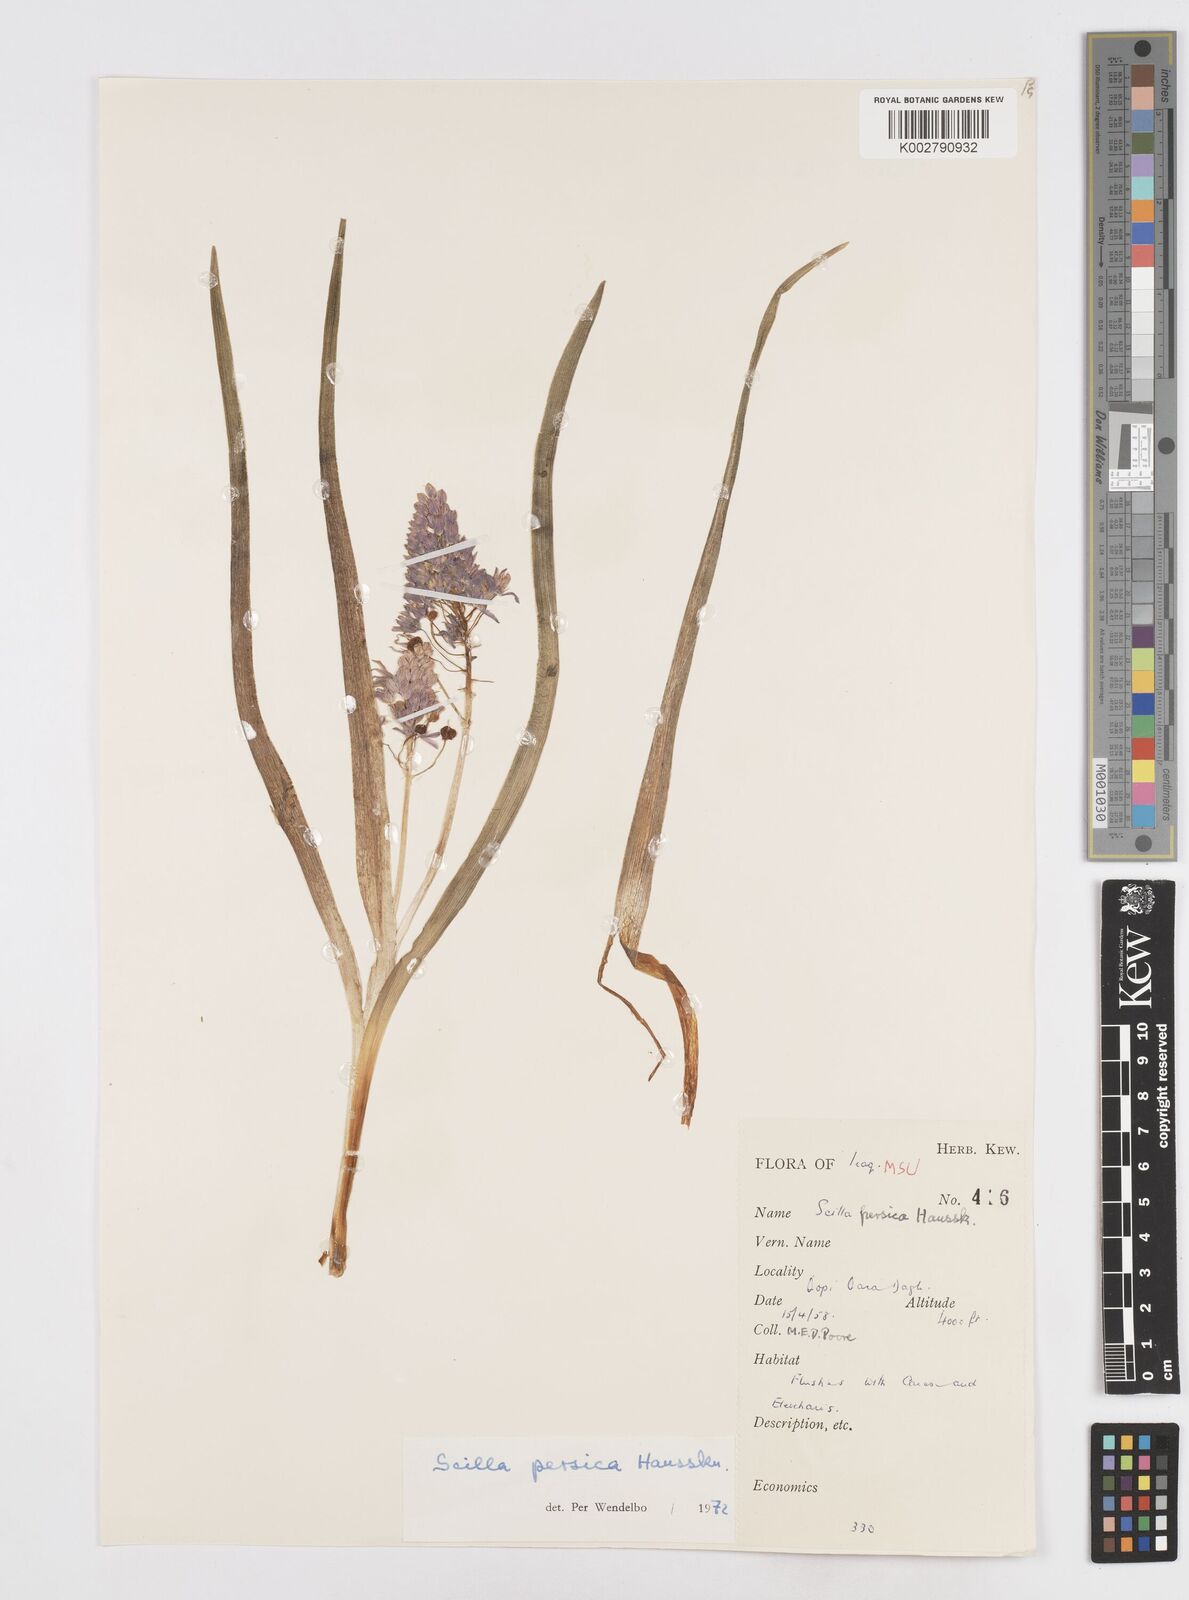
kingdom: Plantae
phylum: Tracheophyta
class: Liliopsida
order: Asparagales
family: Asparagaceae
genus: Zagrosia
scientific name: Zagrosia persica
